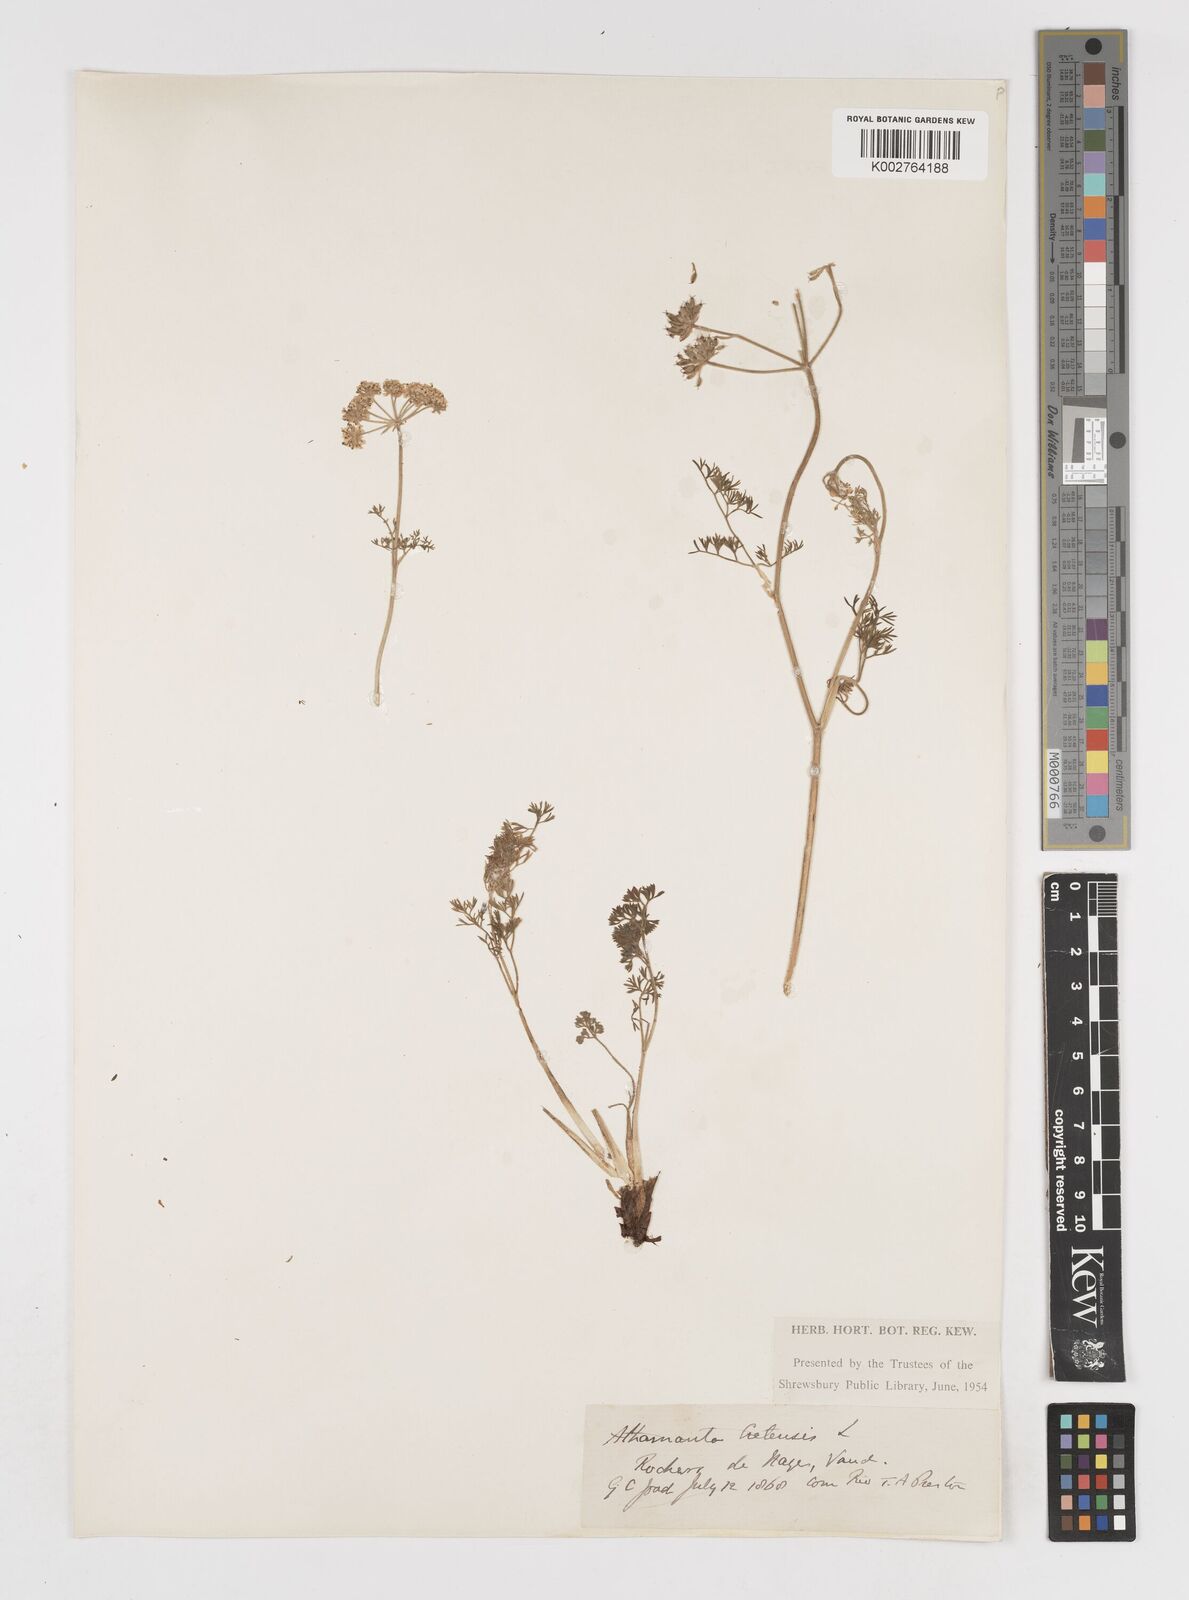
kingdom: Plantae
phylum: Tracheophyta
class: Magnoliopsida
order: Apiales
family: Apiaceae
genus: Athamanta
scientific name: Athamanta cretensis
